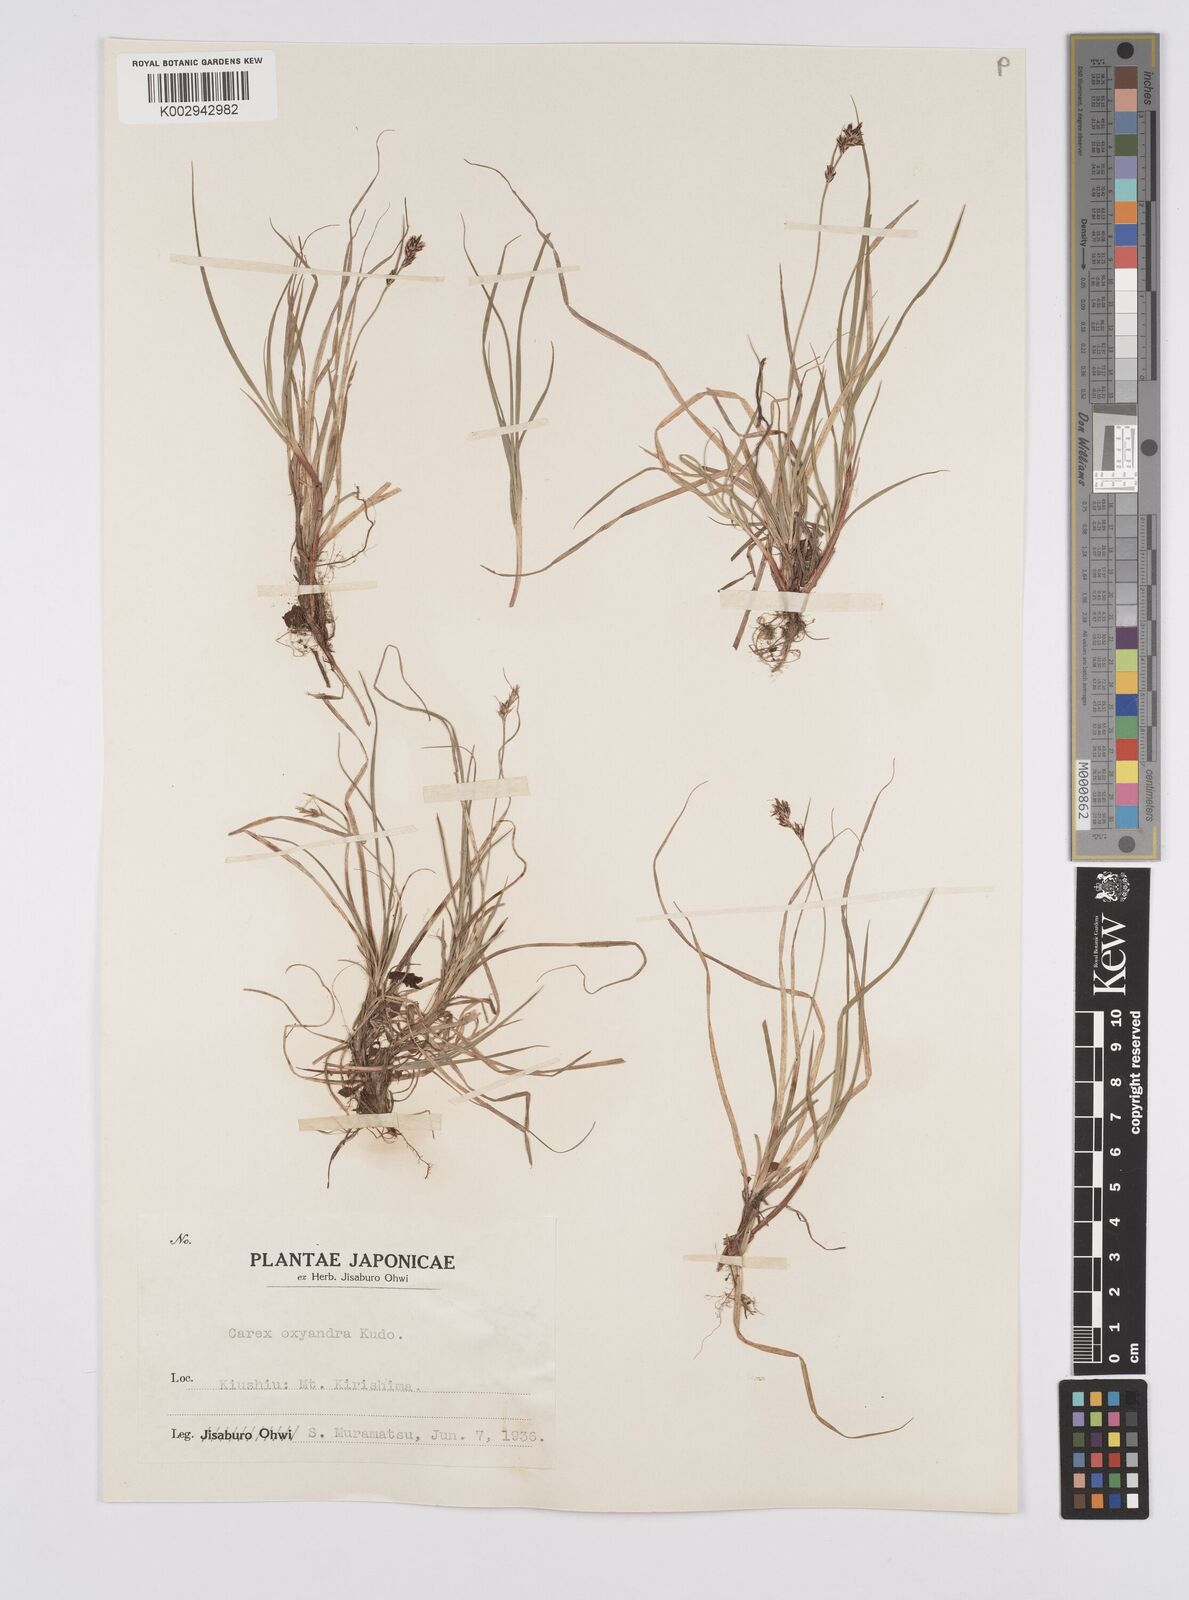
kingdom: Plantae
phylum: Tracheophyta
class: Liliopsida
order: Poales
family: Cyperaceae
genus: Carex
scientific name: Carex oxyandra
